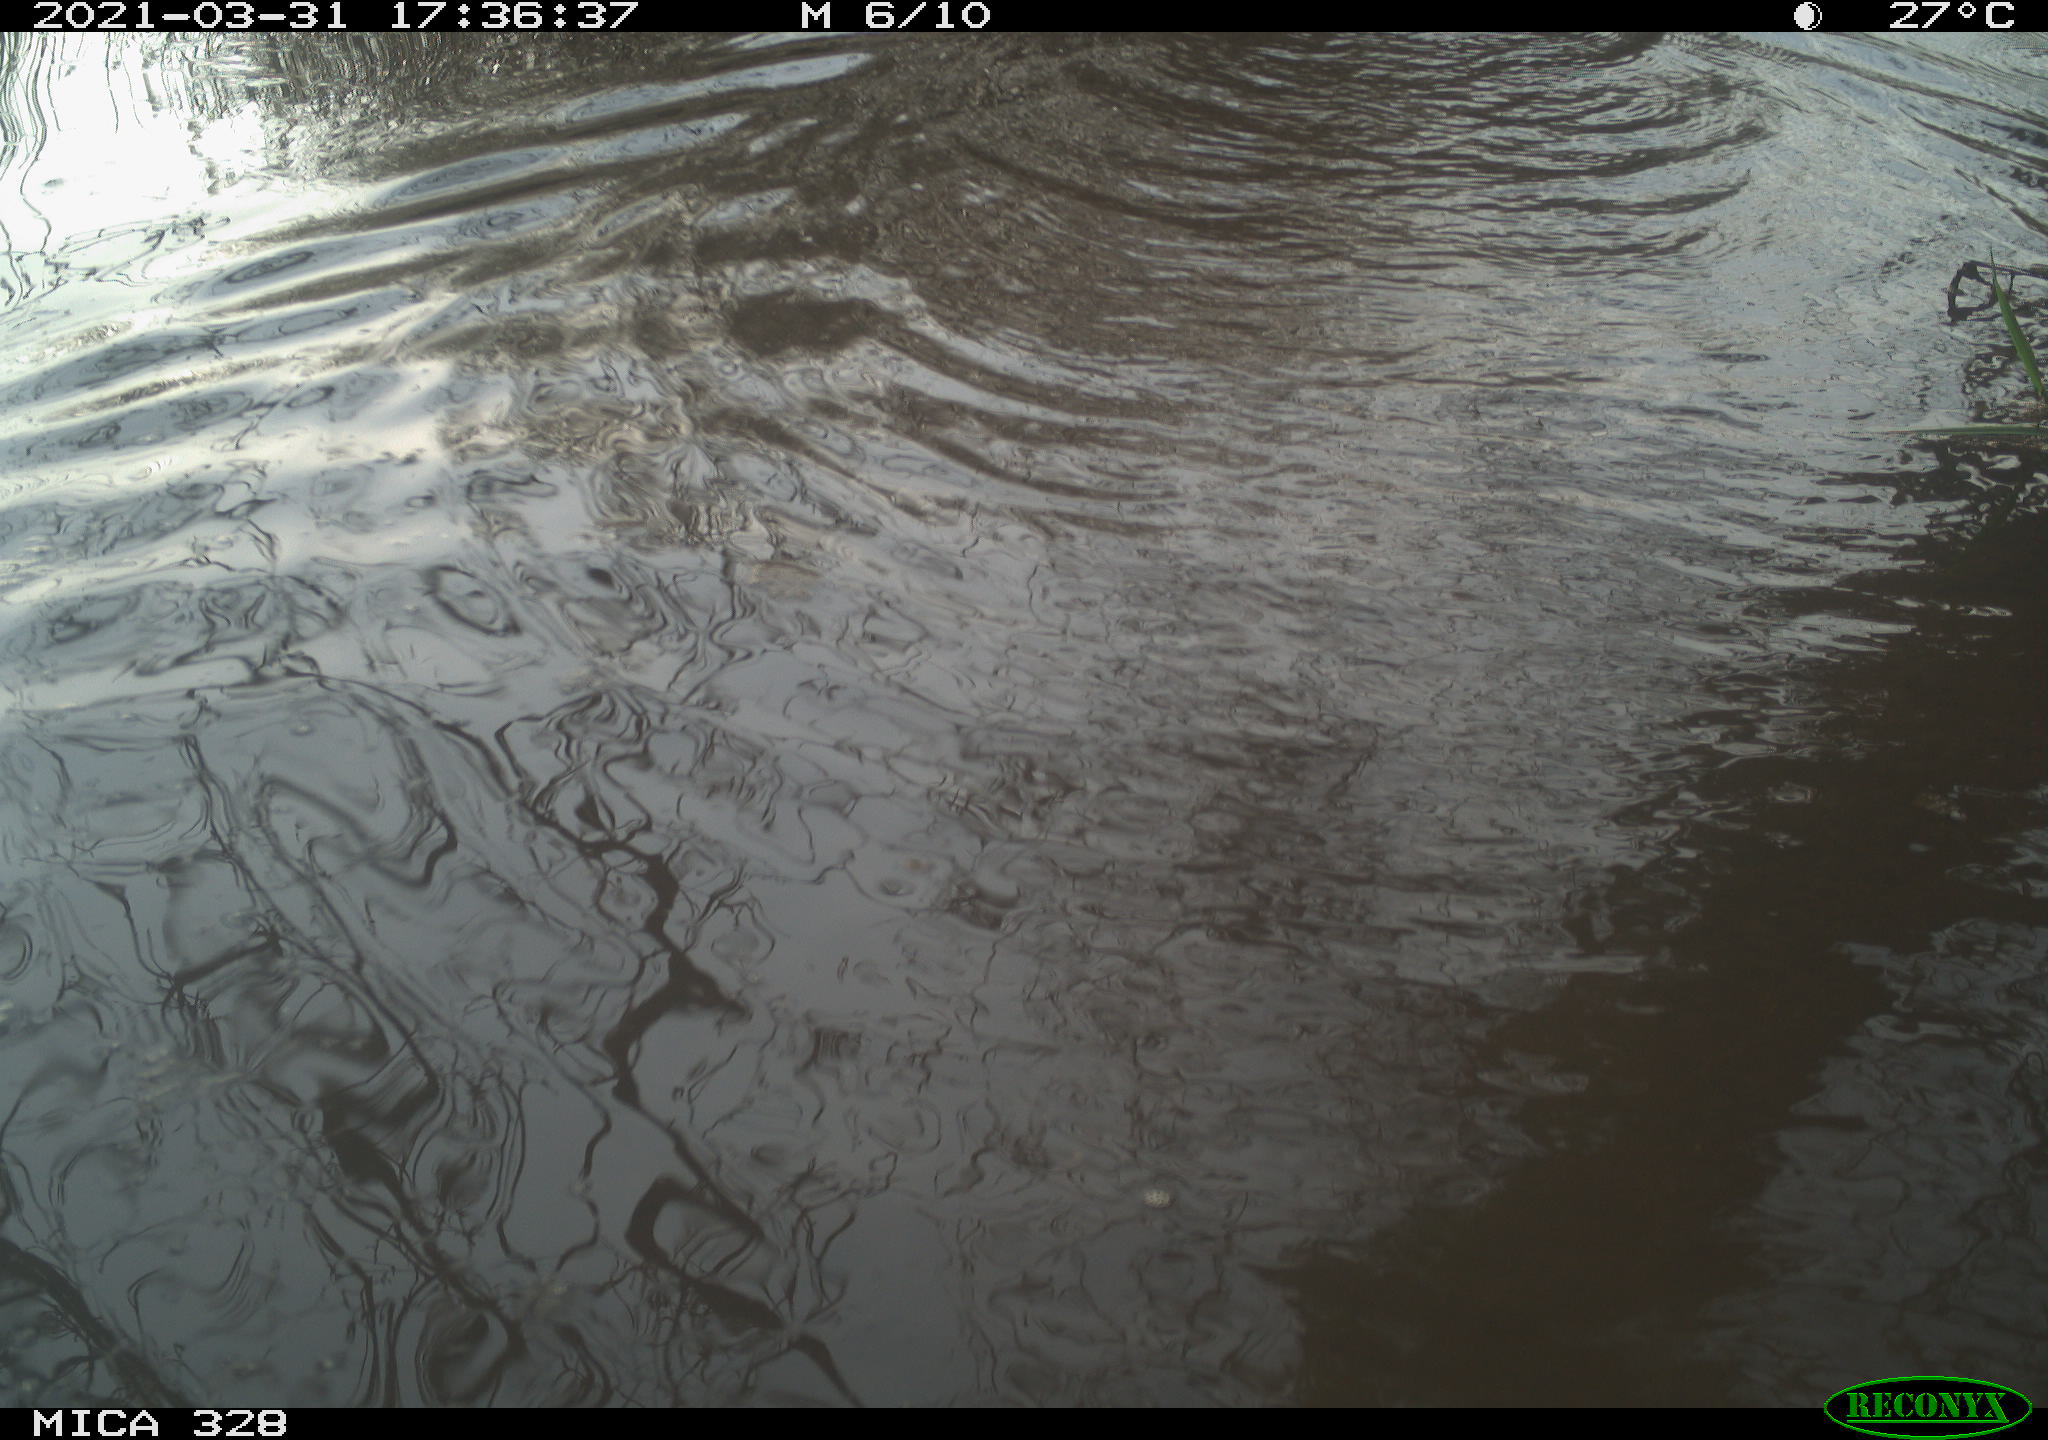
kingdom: Animalia
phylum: Chordata
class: Mammalia
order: Rodentia
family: Cricetidae
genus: Ondatra
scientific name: Ondatra zibethicus
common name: Muskrat
